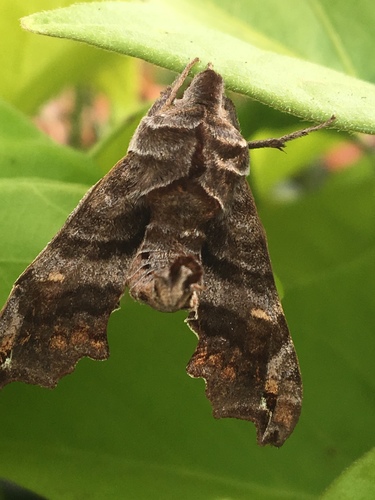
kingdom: Animalia
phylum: Arthropoda
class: Insecta
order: Lepidoptera
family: Sphingidae
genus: Deidamia
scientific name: Deidamia inscriptum
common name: Lettered sphinx
